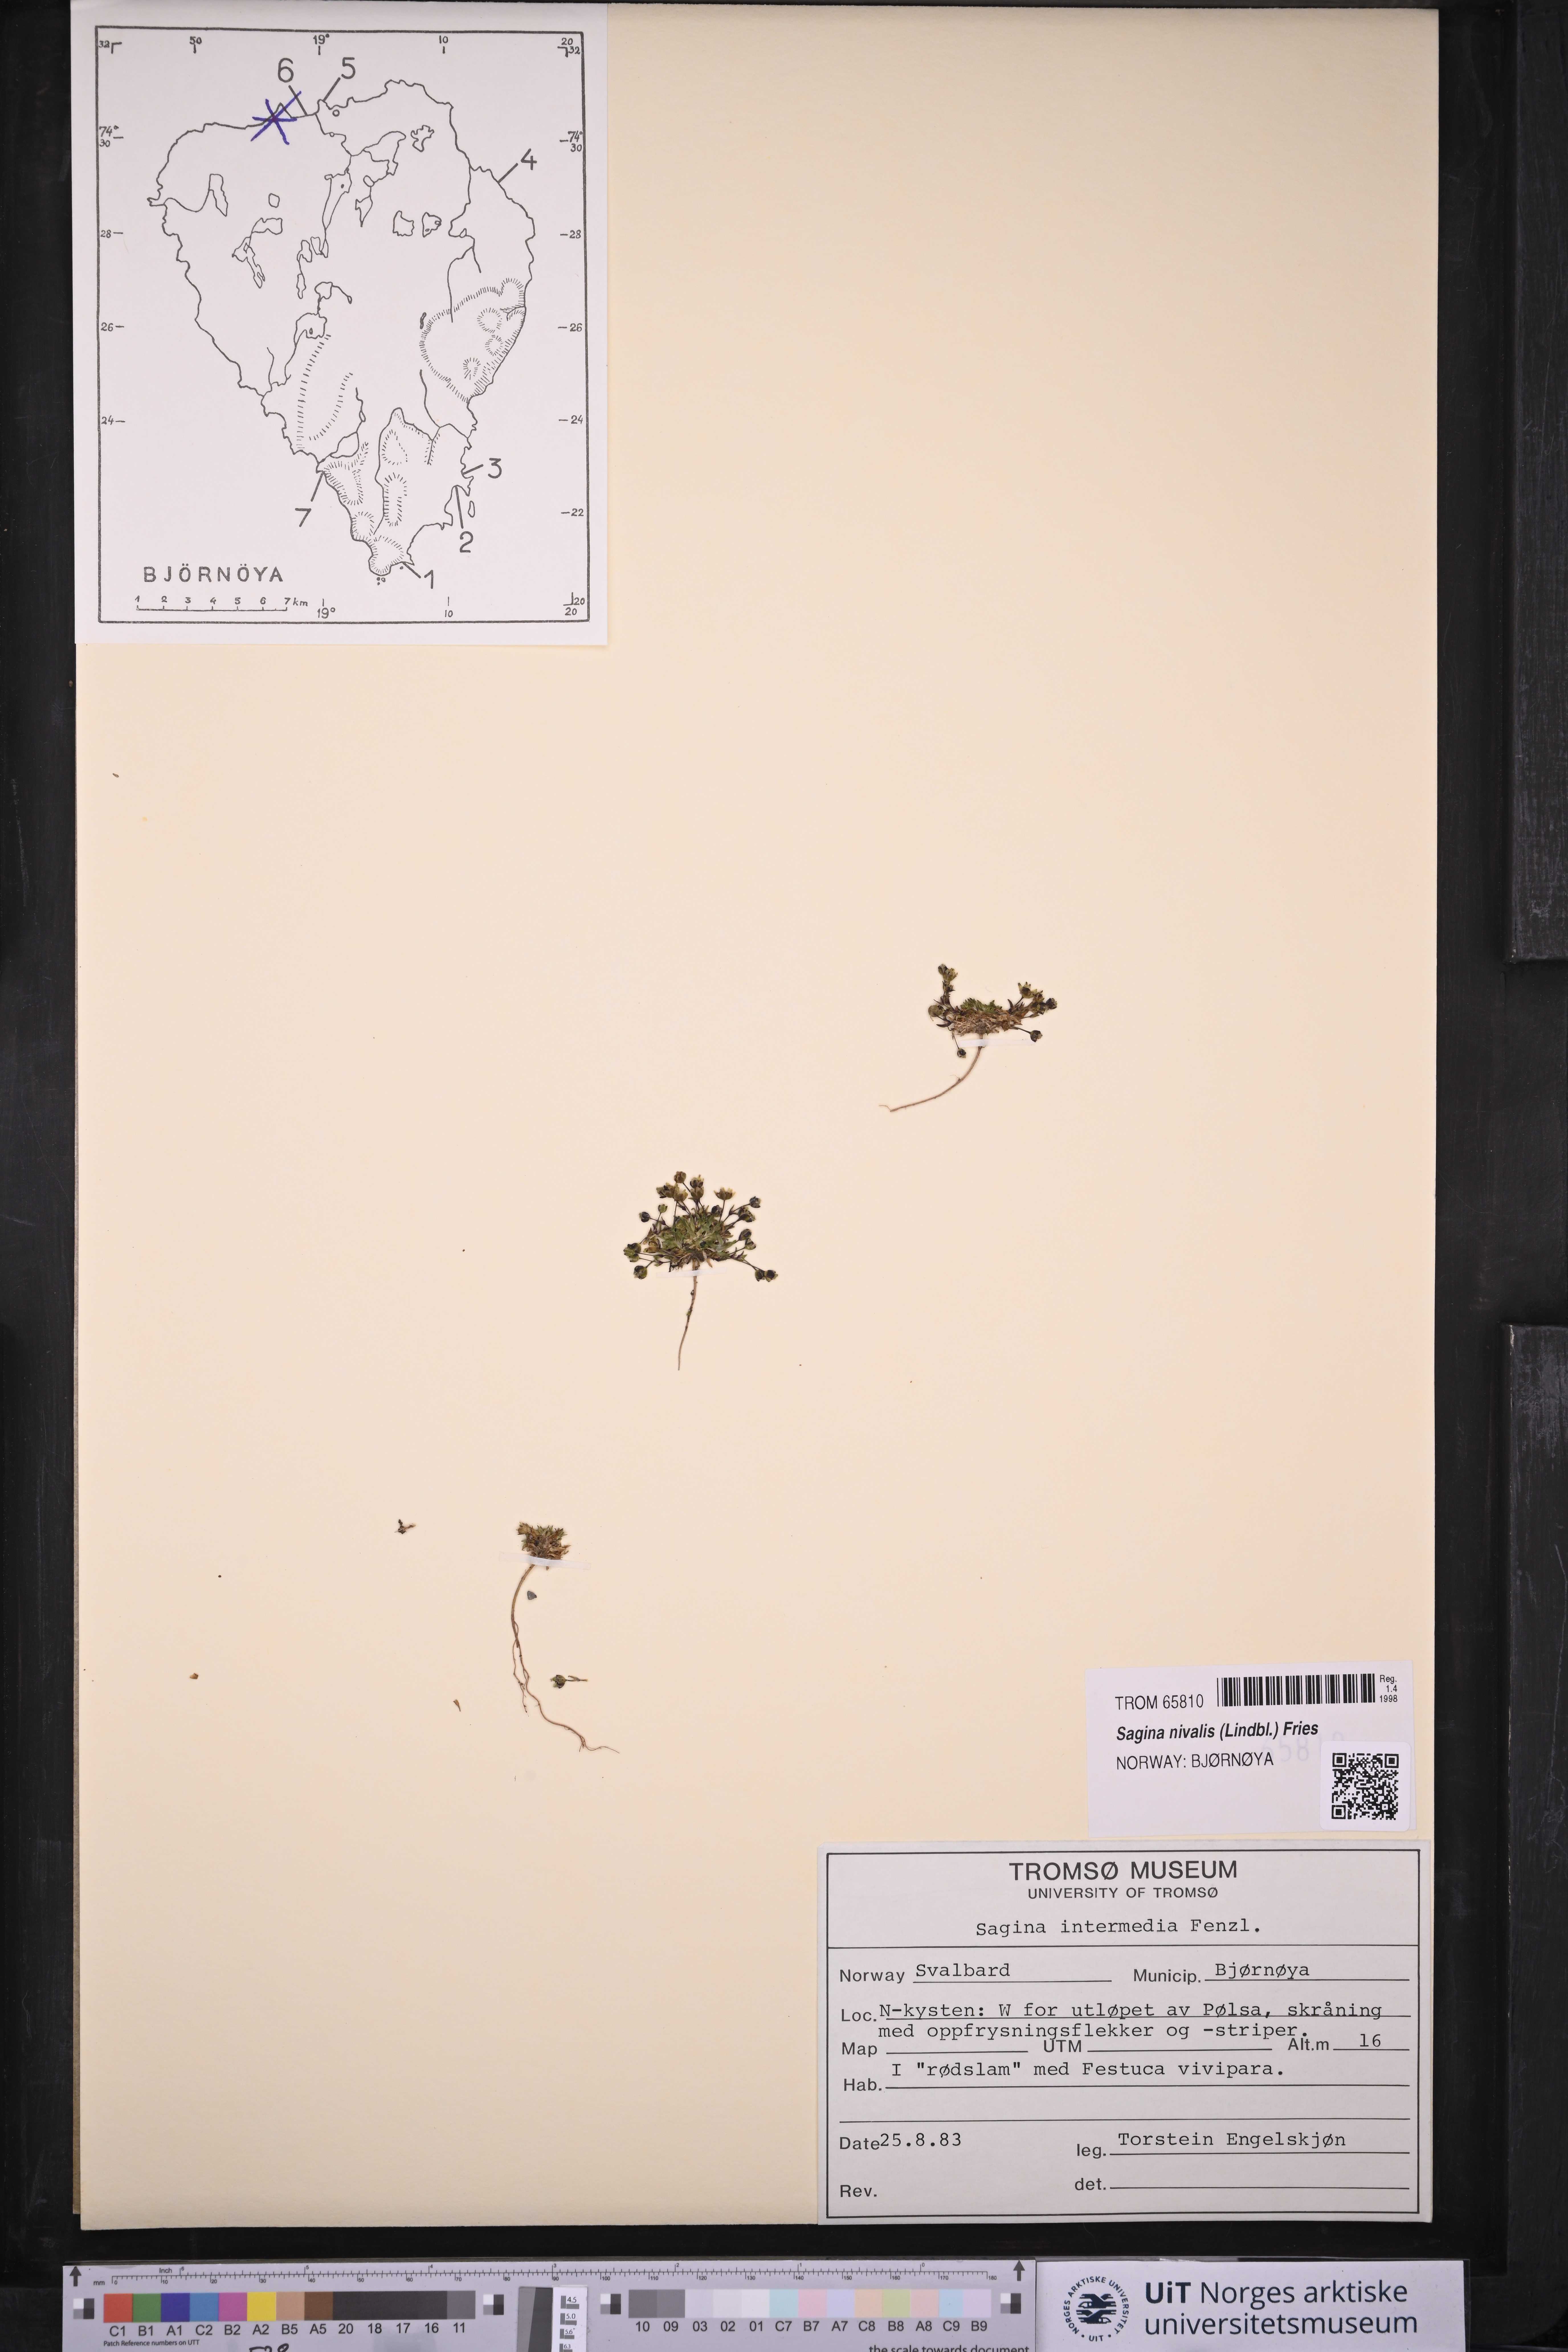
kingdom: Plantae
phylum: Tracheophyta
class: Magnoliopsida
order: Caryophyllales
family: Caryophyllaceae
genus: Sagina
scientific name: Sagina nivalis
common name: Snow pearlwort
